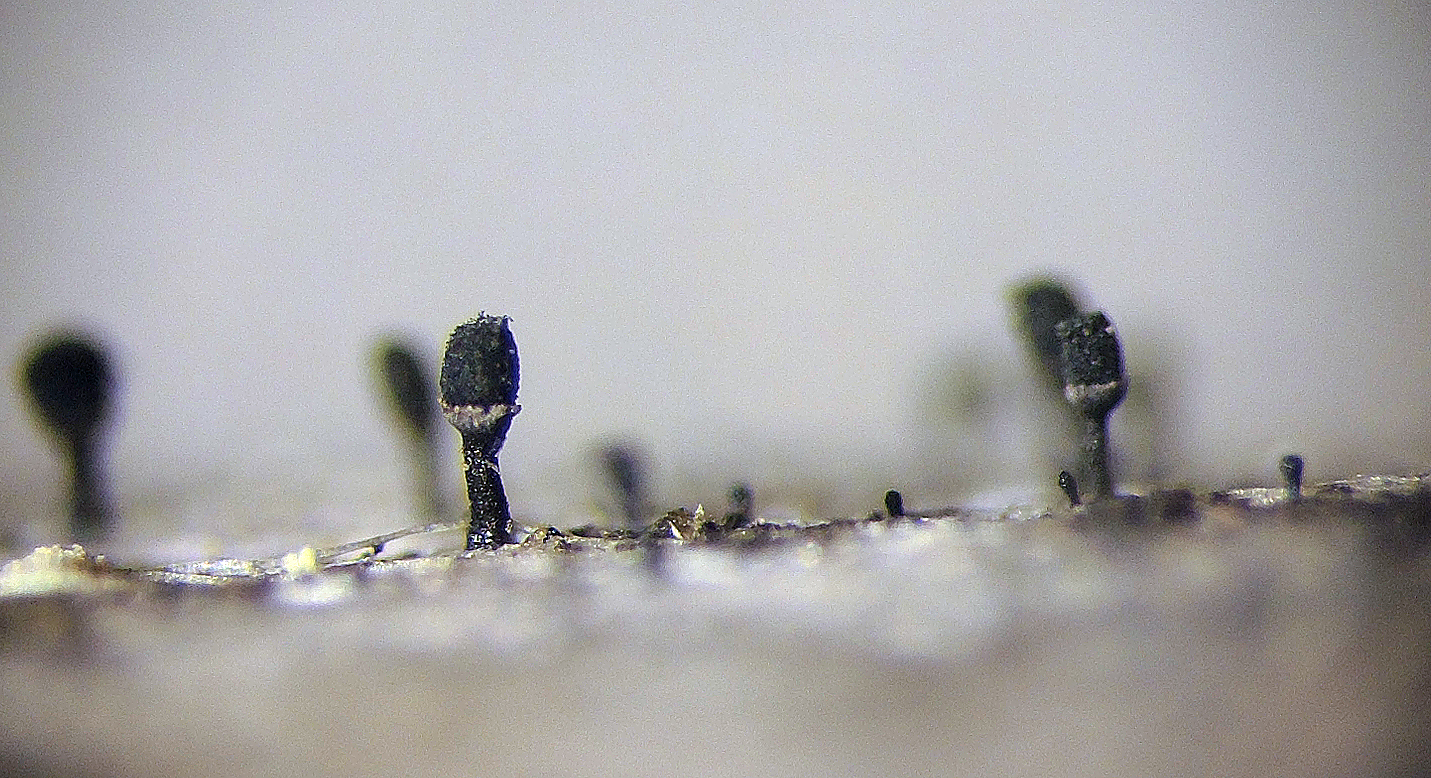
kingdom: Fungi
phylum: Ascomycota
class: Lecanoromycetes
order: Caliciales
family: Caliciaceae
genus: Calicium
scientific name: Calicium glaucellum
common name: grågrøn nålelav
